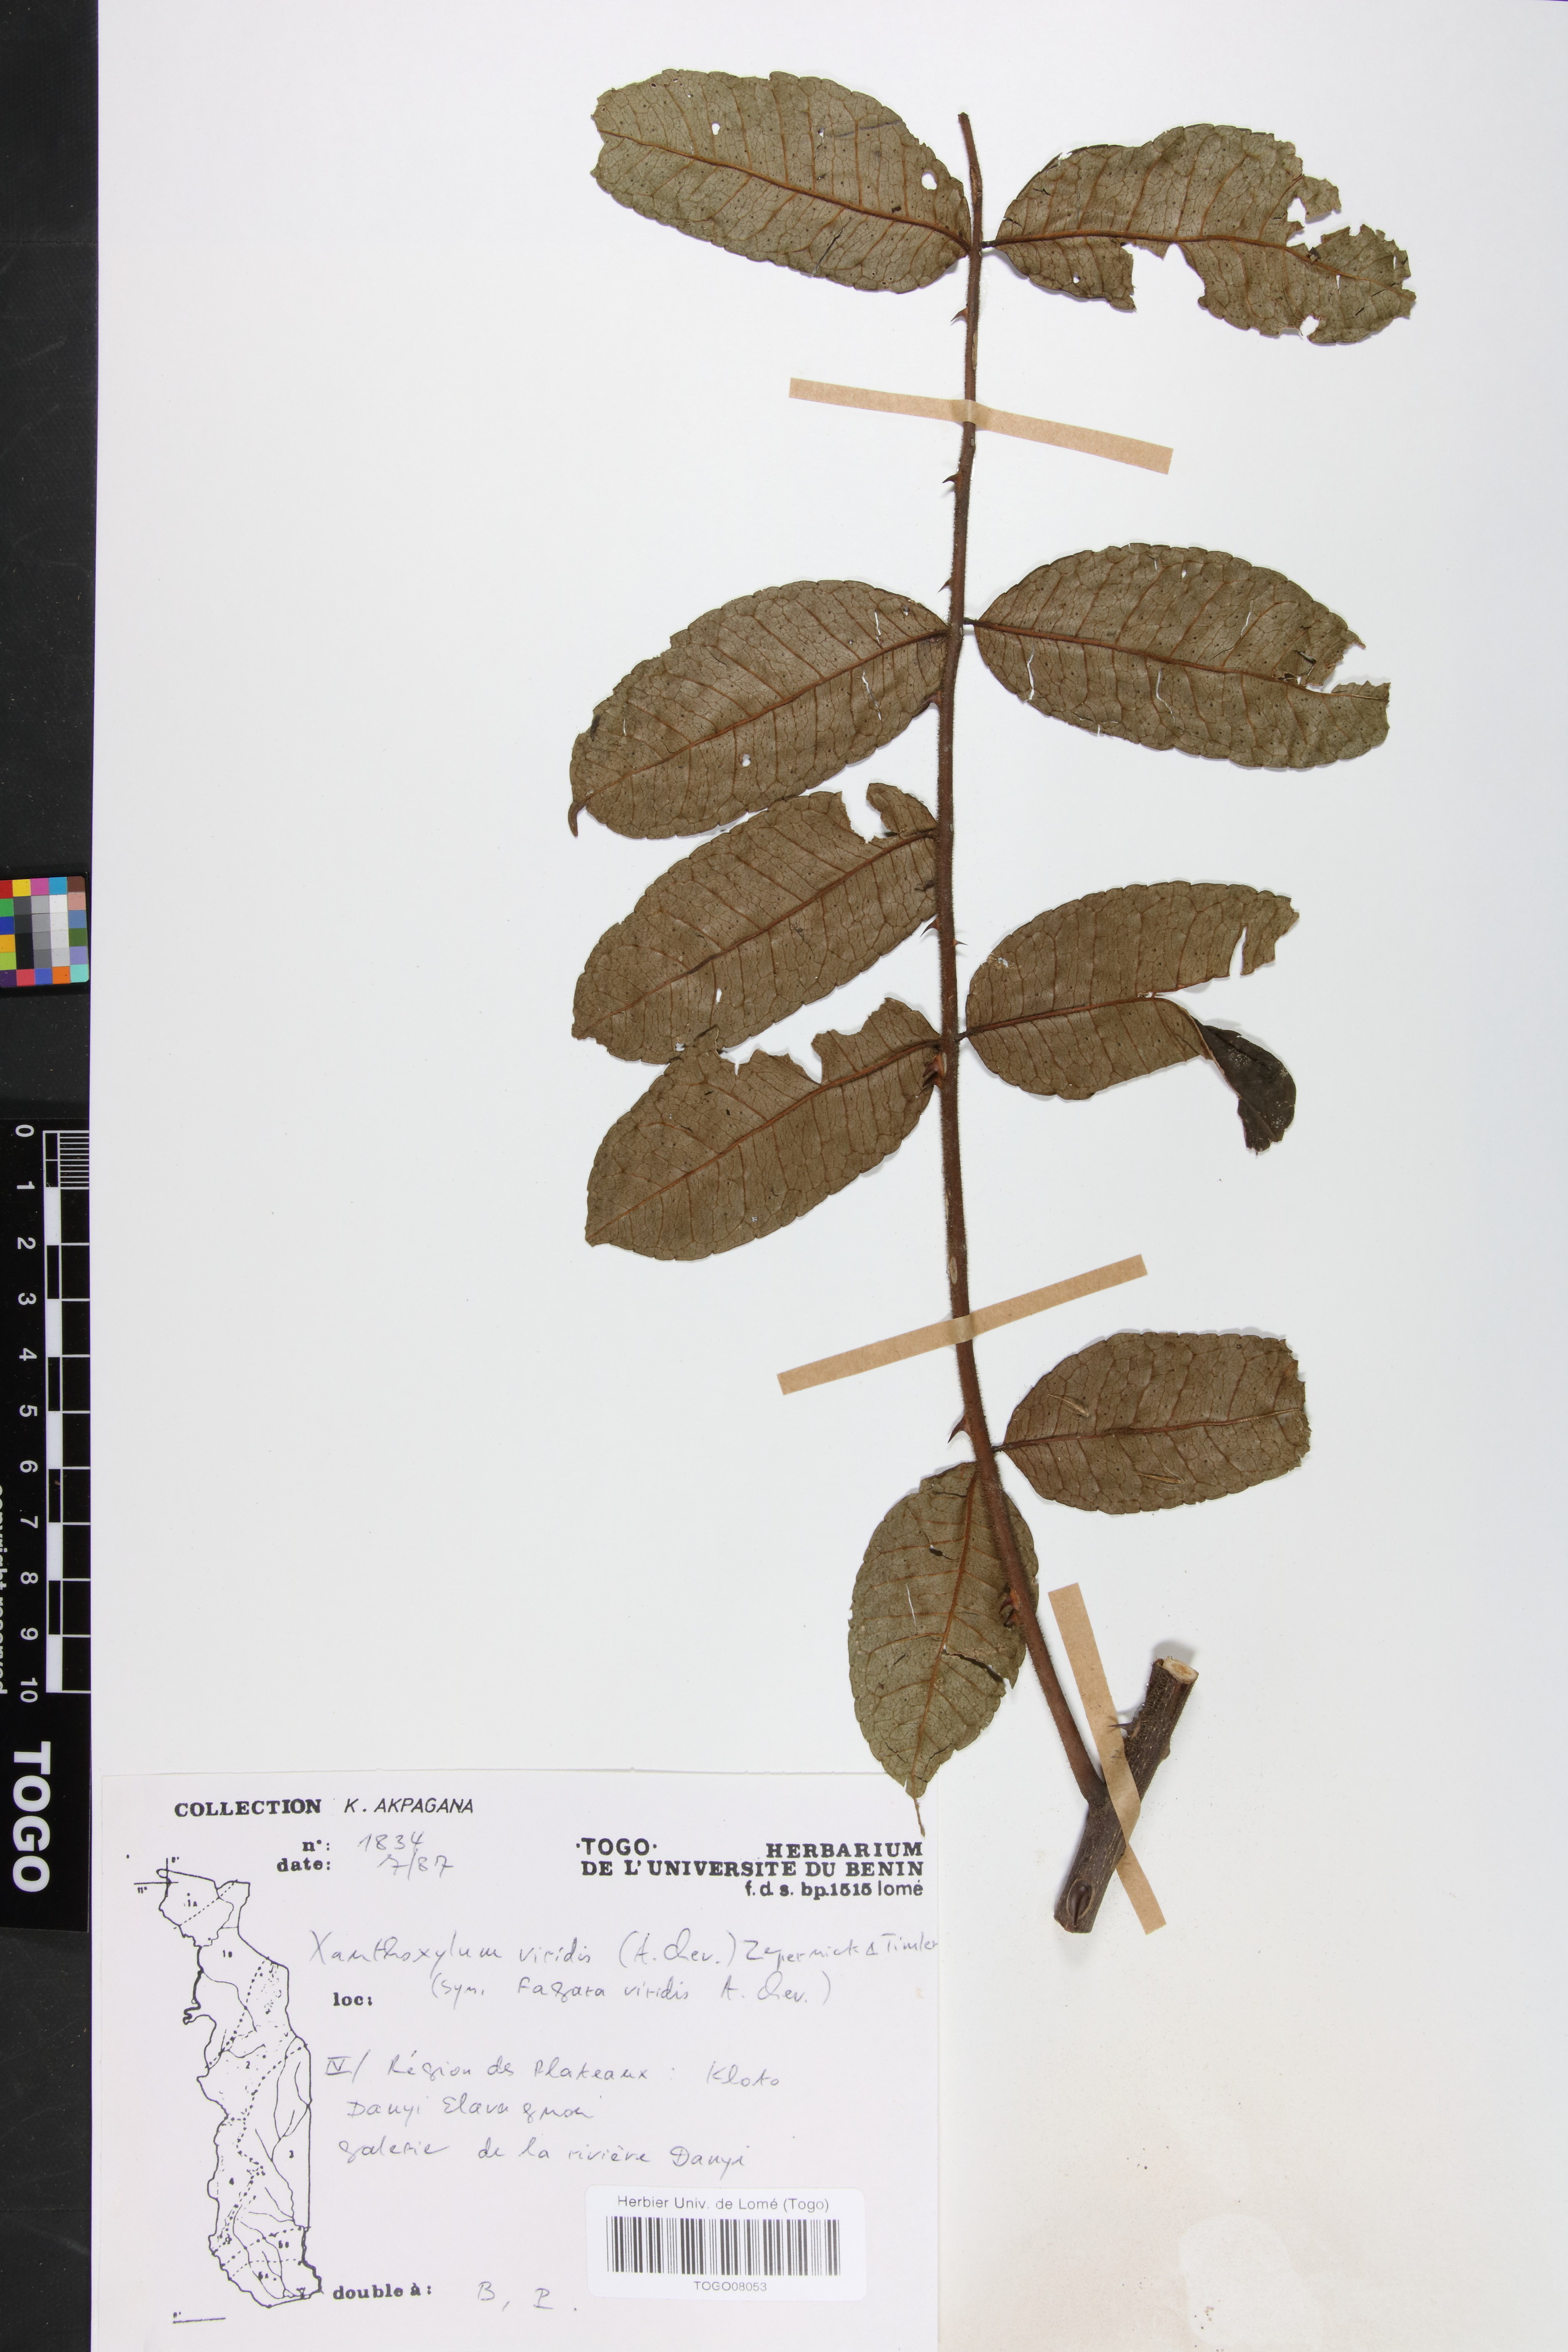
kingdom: Plantae
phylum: Tracheophyta
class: Magnoliopsida
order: Sapindales
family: Rutaceae
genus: Zanthoxylum
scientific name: Zanthoxylum viride
